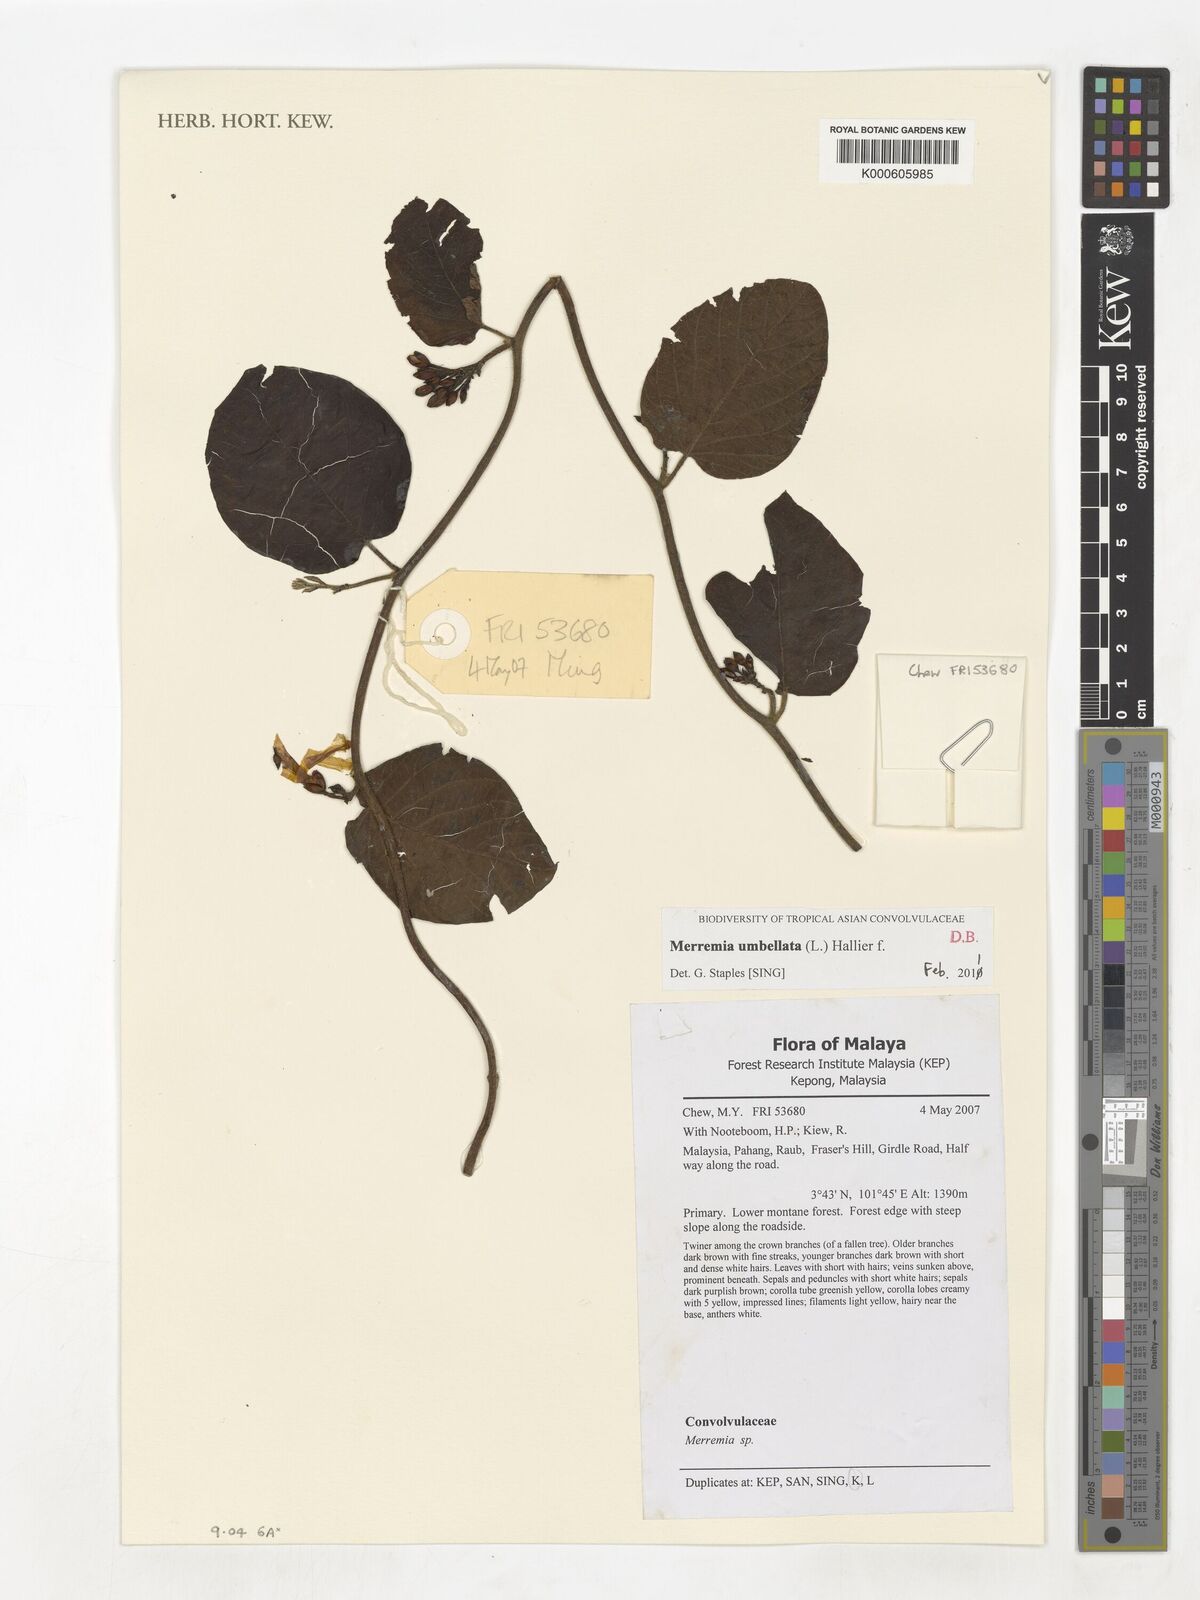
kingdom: Plantae
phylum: Tracheophyta
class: Magnoliopsida
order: Solanales
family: Convolvulaceae
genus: Camonea
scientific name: Camonea umbellata
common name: Hogvine
